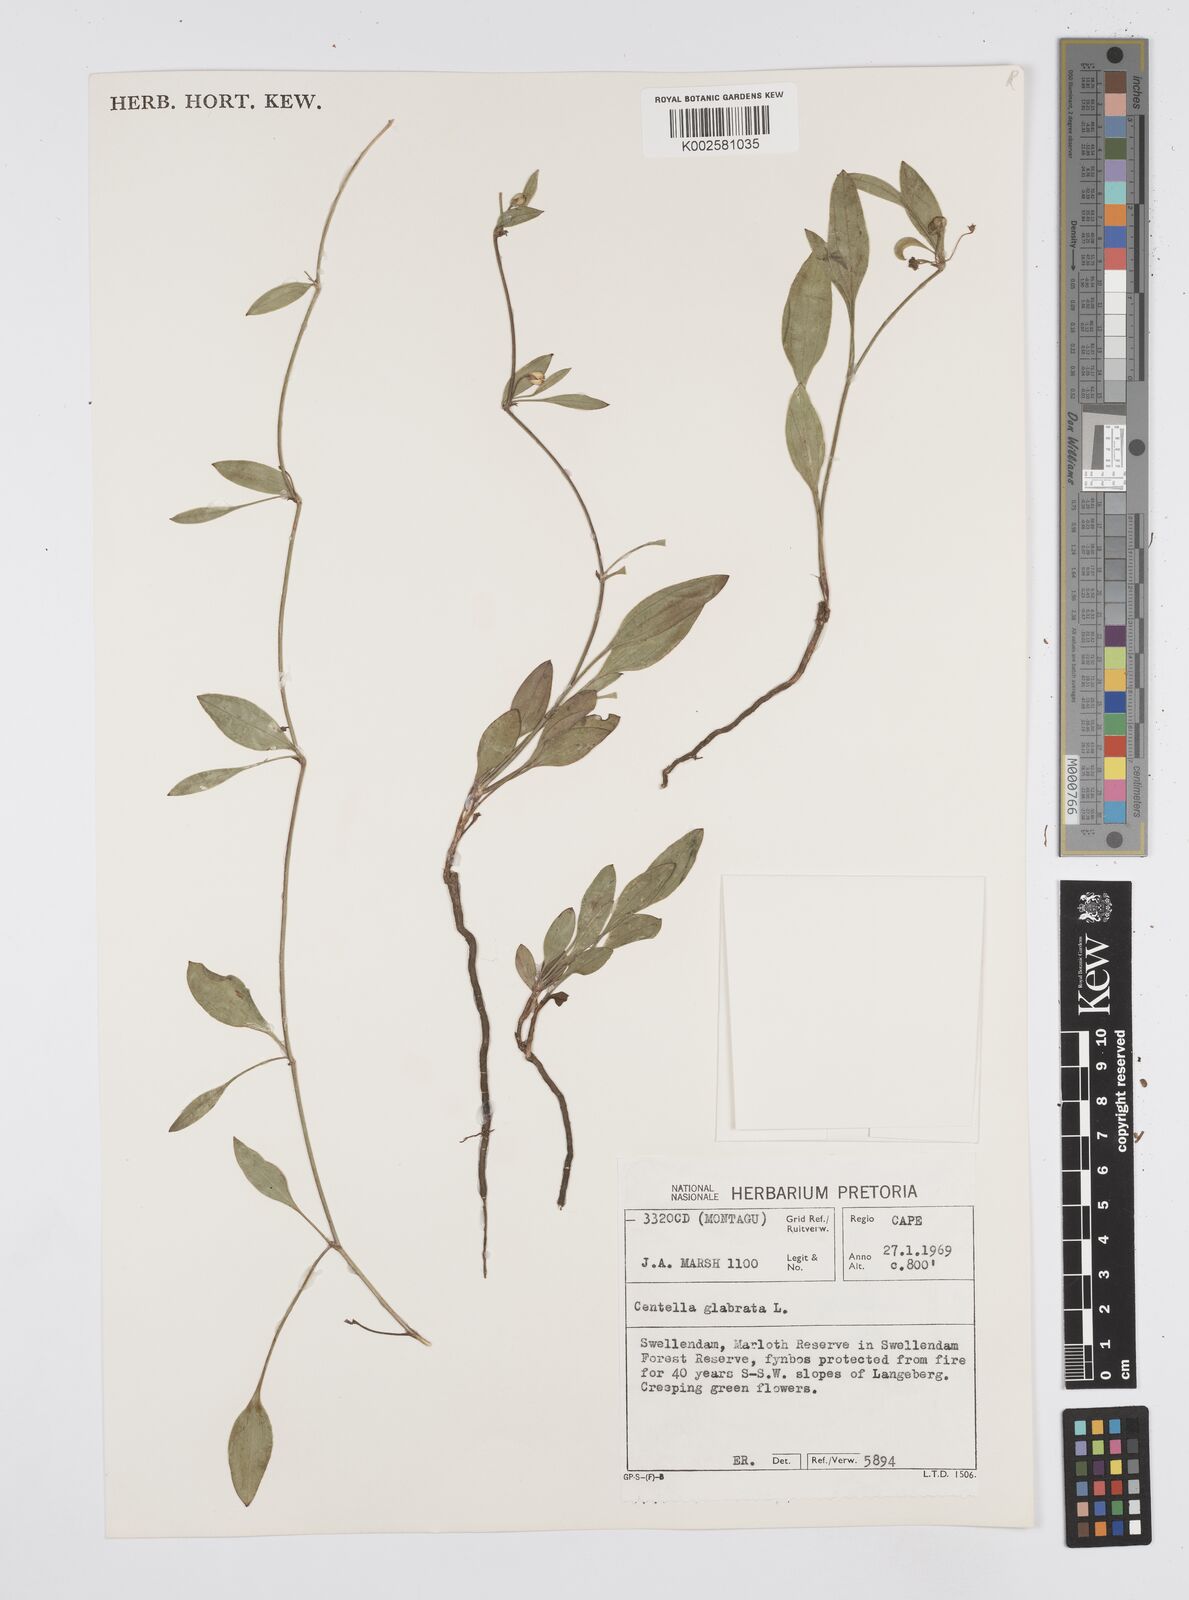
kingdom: Plantae
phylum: Tracheophyta
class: Magnoliopsida
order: Apiales
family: Apiaceae
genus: Centella
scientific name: Centella glabrata
